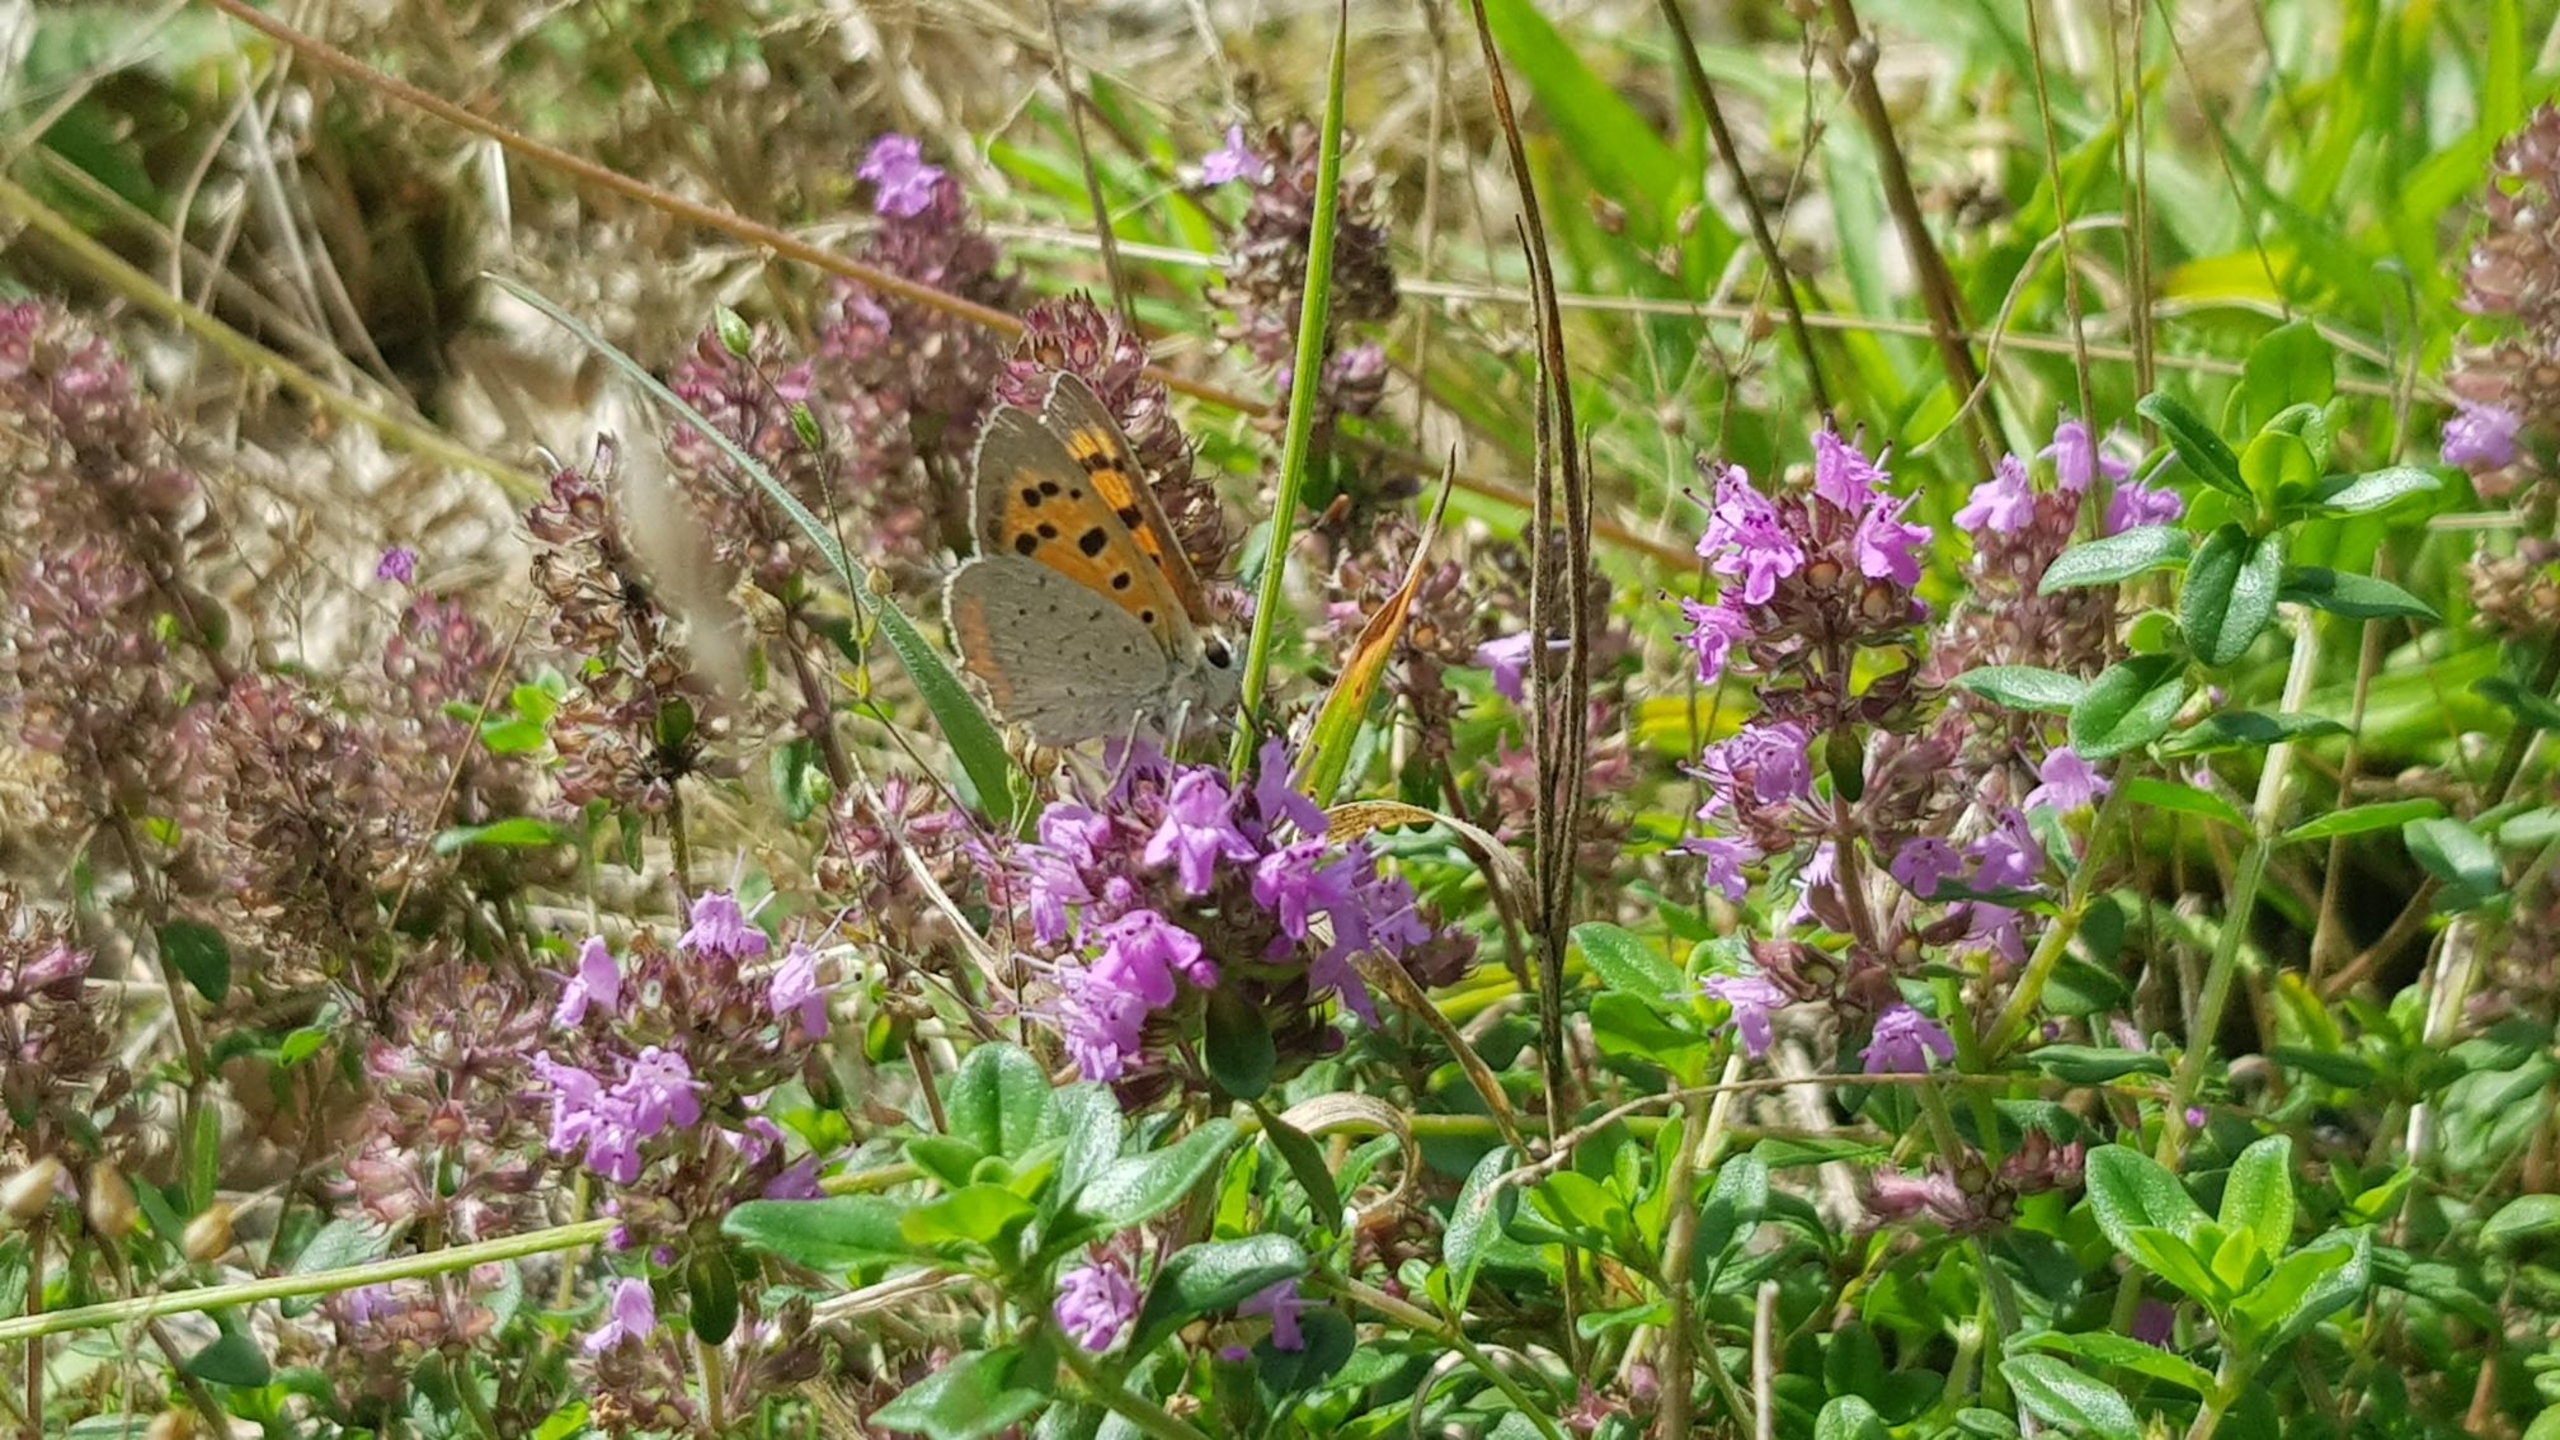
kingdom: Plantae
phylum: Tracheophyta
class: Magnoliopsida
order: Lamiales
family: Lamiaceae
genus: Thymus
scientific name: Thymus pulegioides
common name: Bredbladet timian
